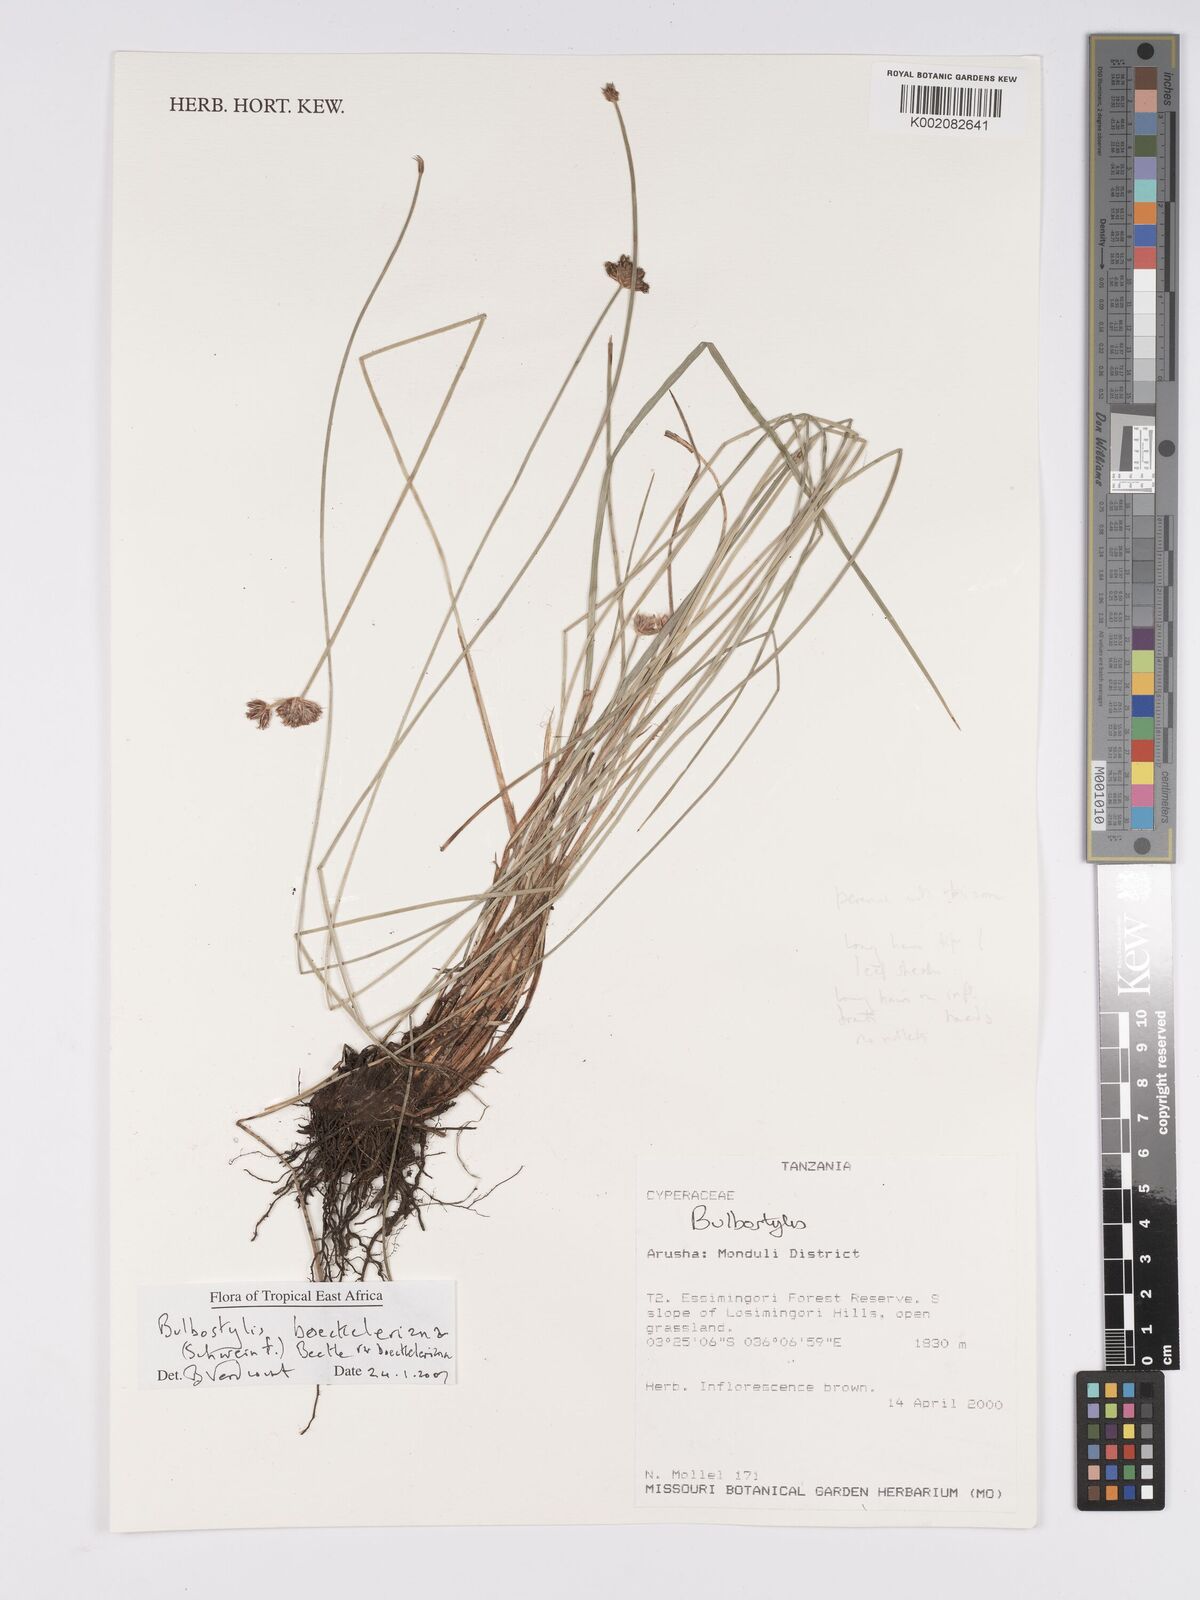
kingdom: Plantae
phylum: Tracheophyta
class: Liliopsida
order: Poales
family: Cyperaceae
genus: Bulbostylis
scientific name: Bulbostylis boeckeleriana
